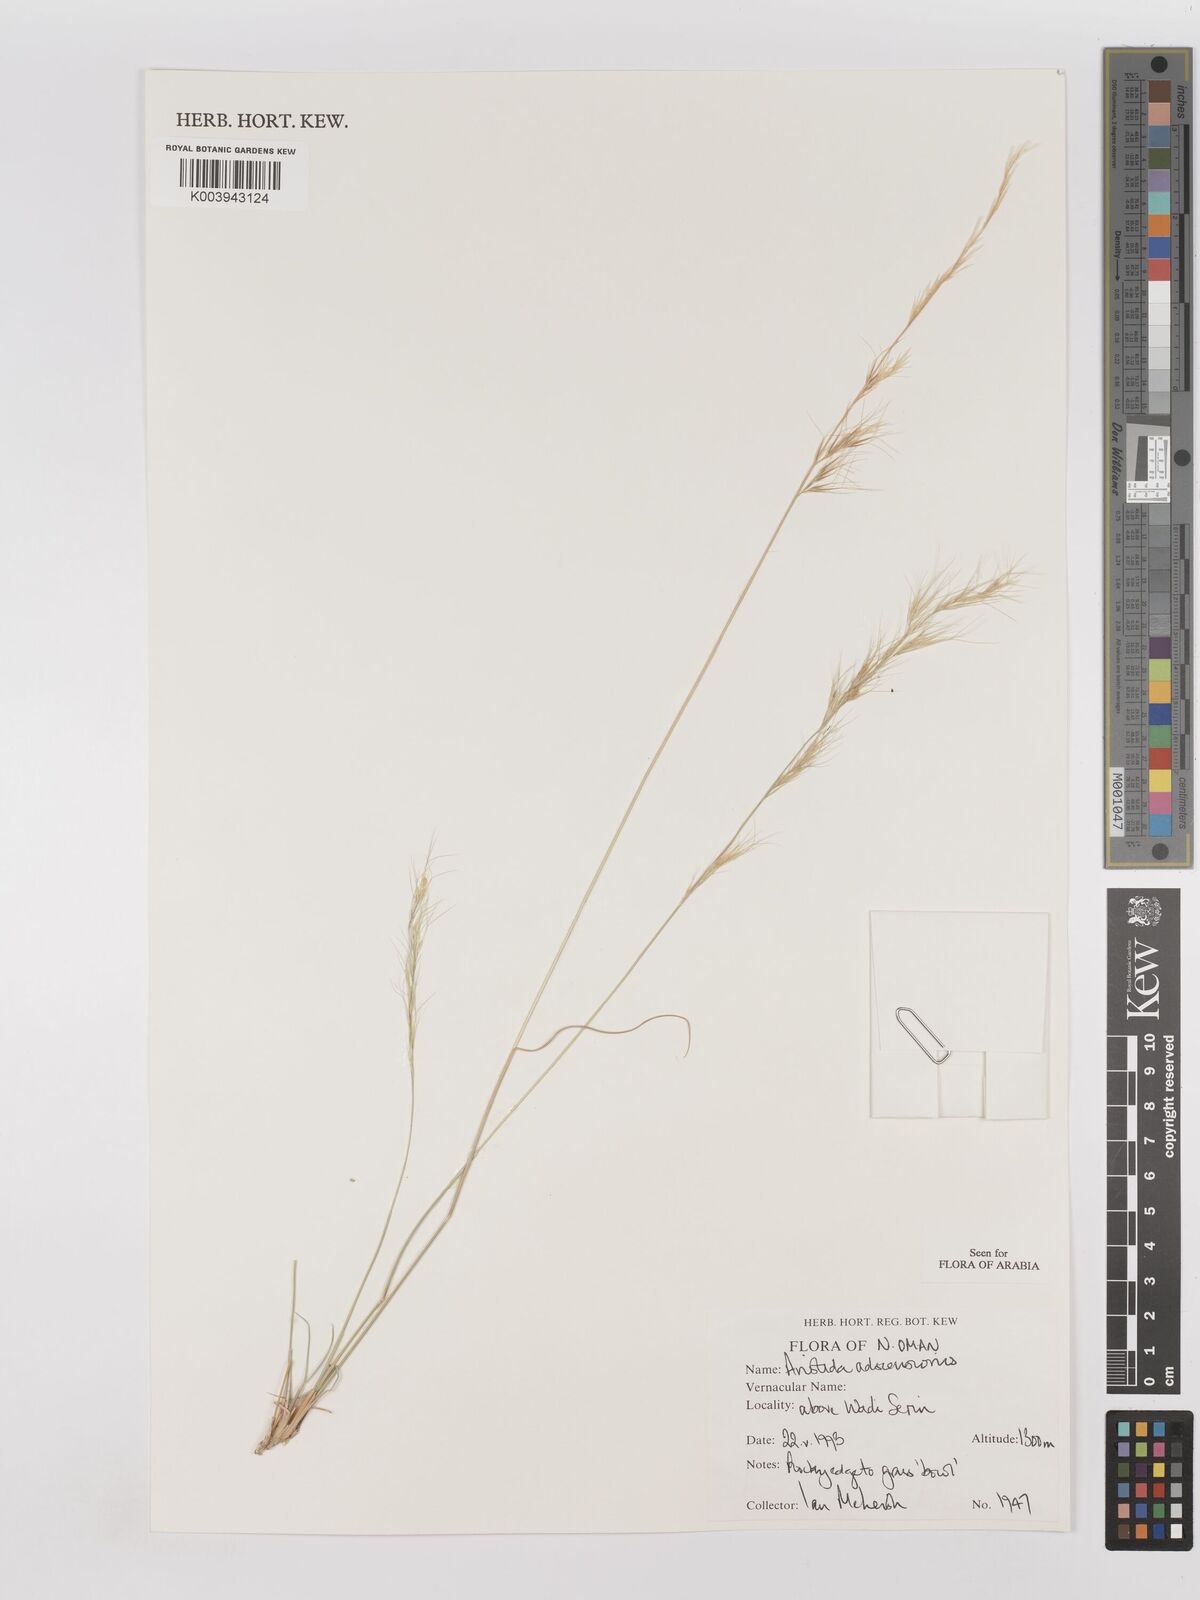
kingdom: Plantae
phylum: Tracheophyta
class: Liliopsida
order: Poales
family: Poaceae
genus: Aristida
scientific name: Aristida adscensionis
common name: Sixweeks threeawn
